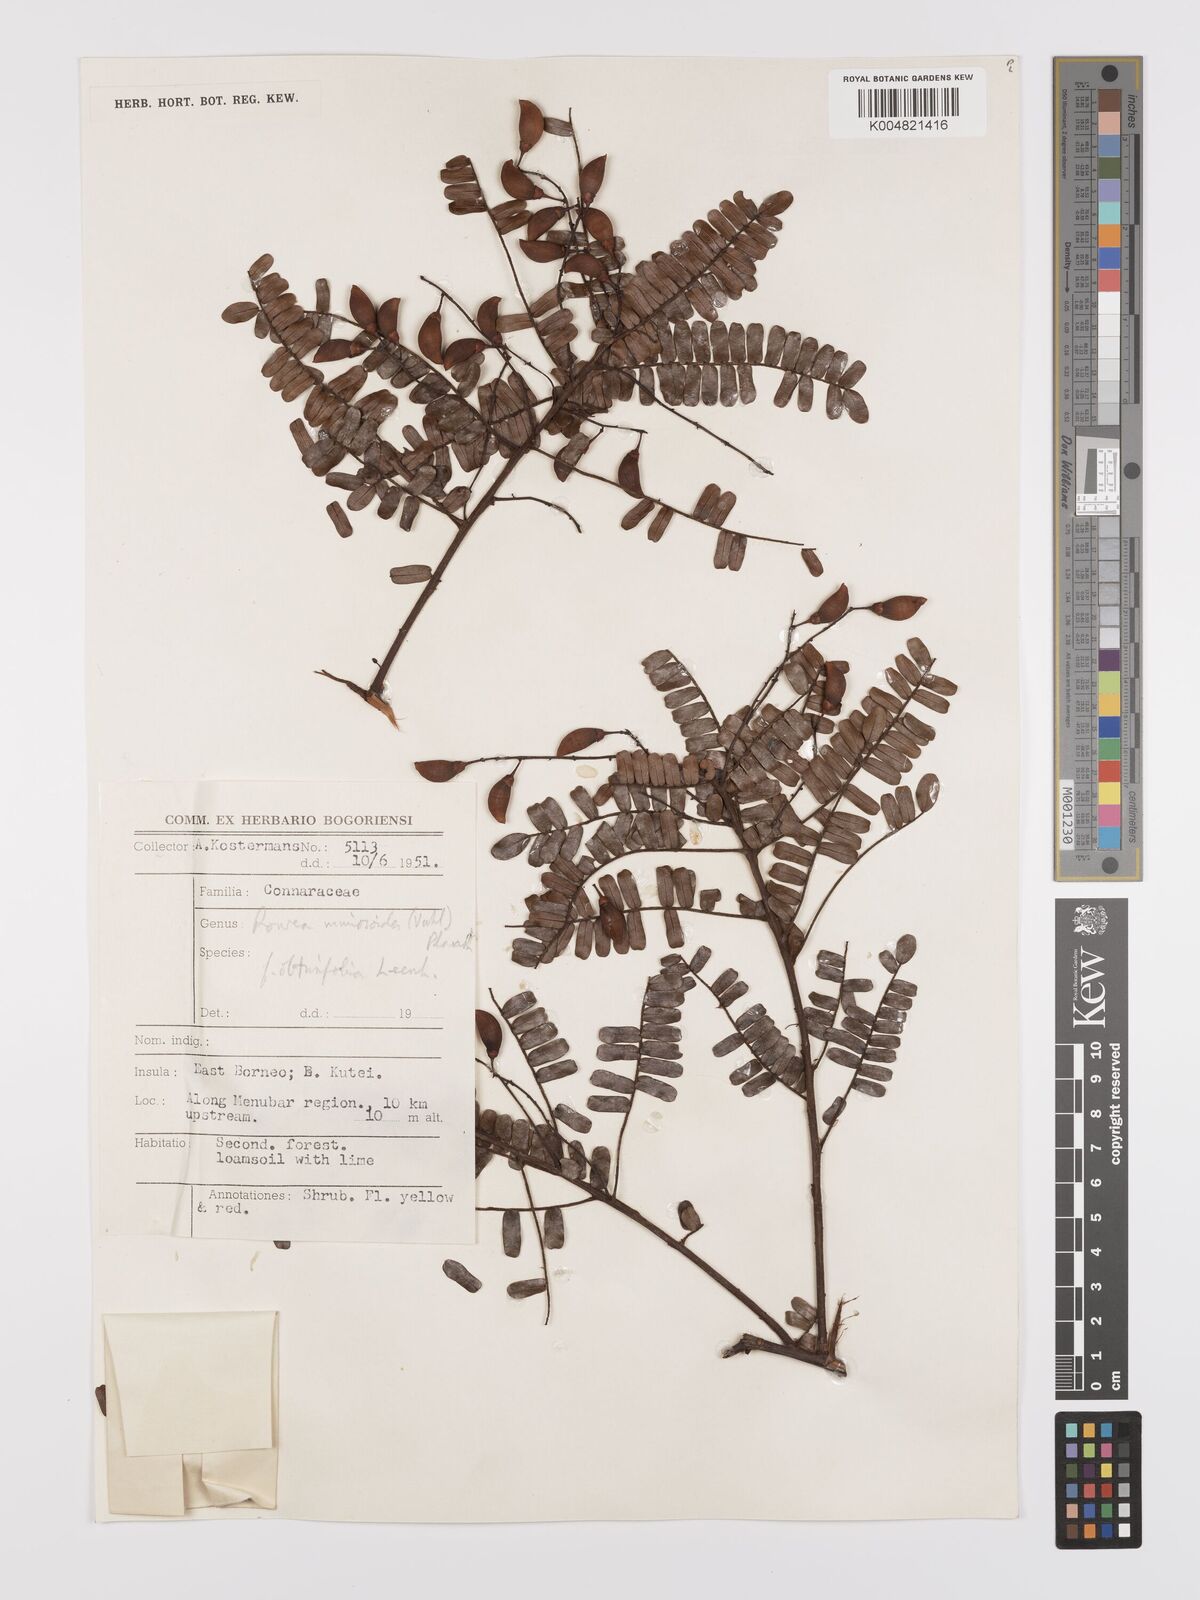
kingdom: Plantae
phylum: Tracheophyta
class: Magnoliopsida
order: Oxalidales
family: Connaraceae
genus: Rourea
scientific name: Rourea mimosoides
